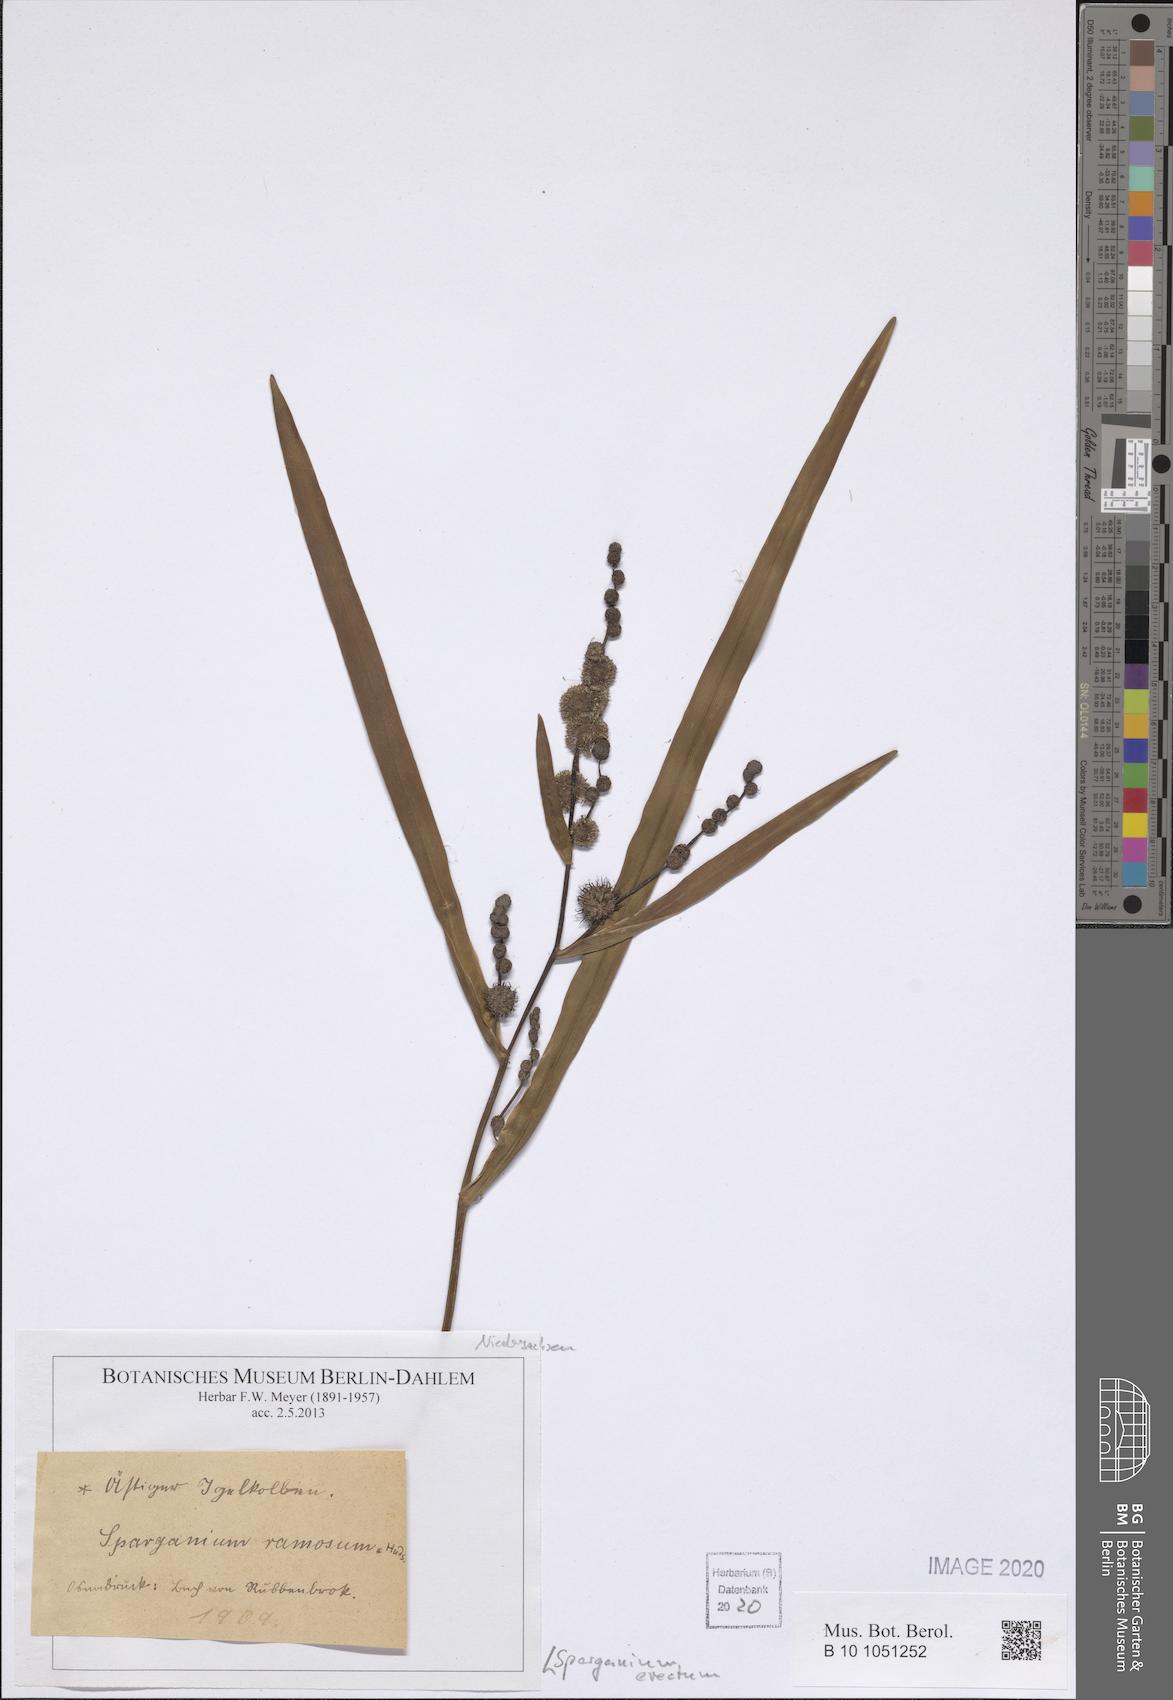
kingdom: Plantae
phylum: Tracheophyta
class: Liliopsida
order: Poales
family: Typhaceae
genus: Sparganium
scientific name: Sparganium erectum
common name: Branched bur-reed
